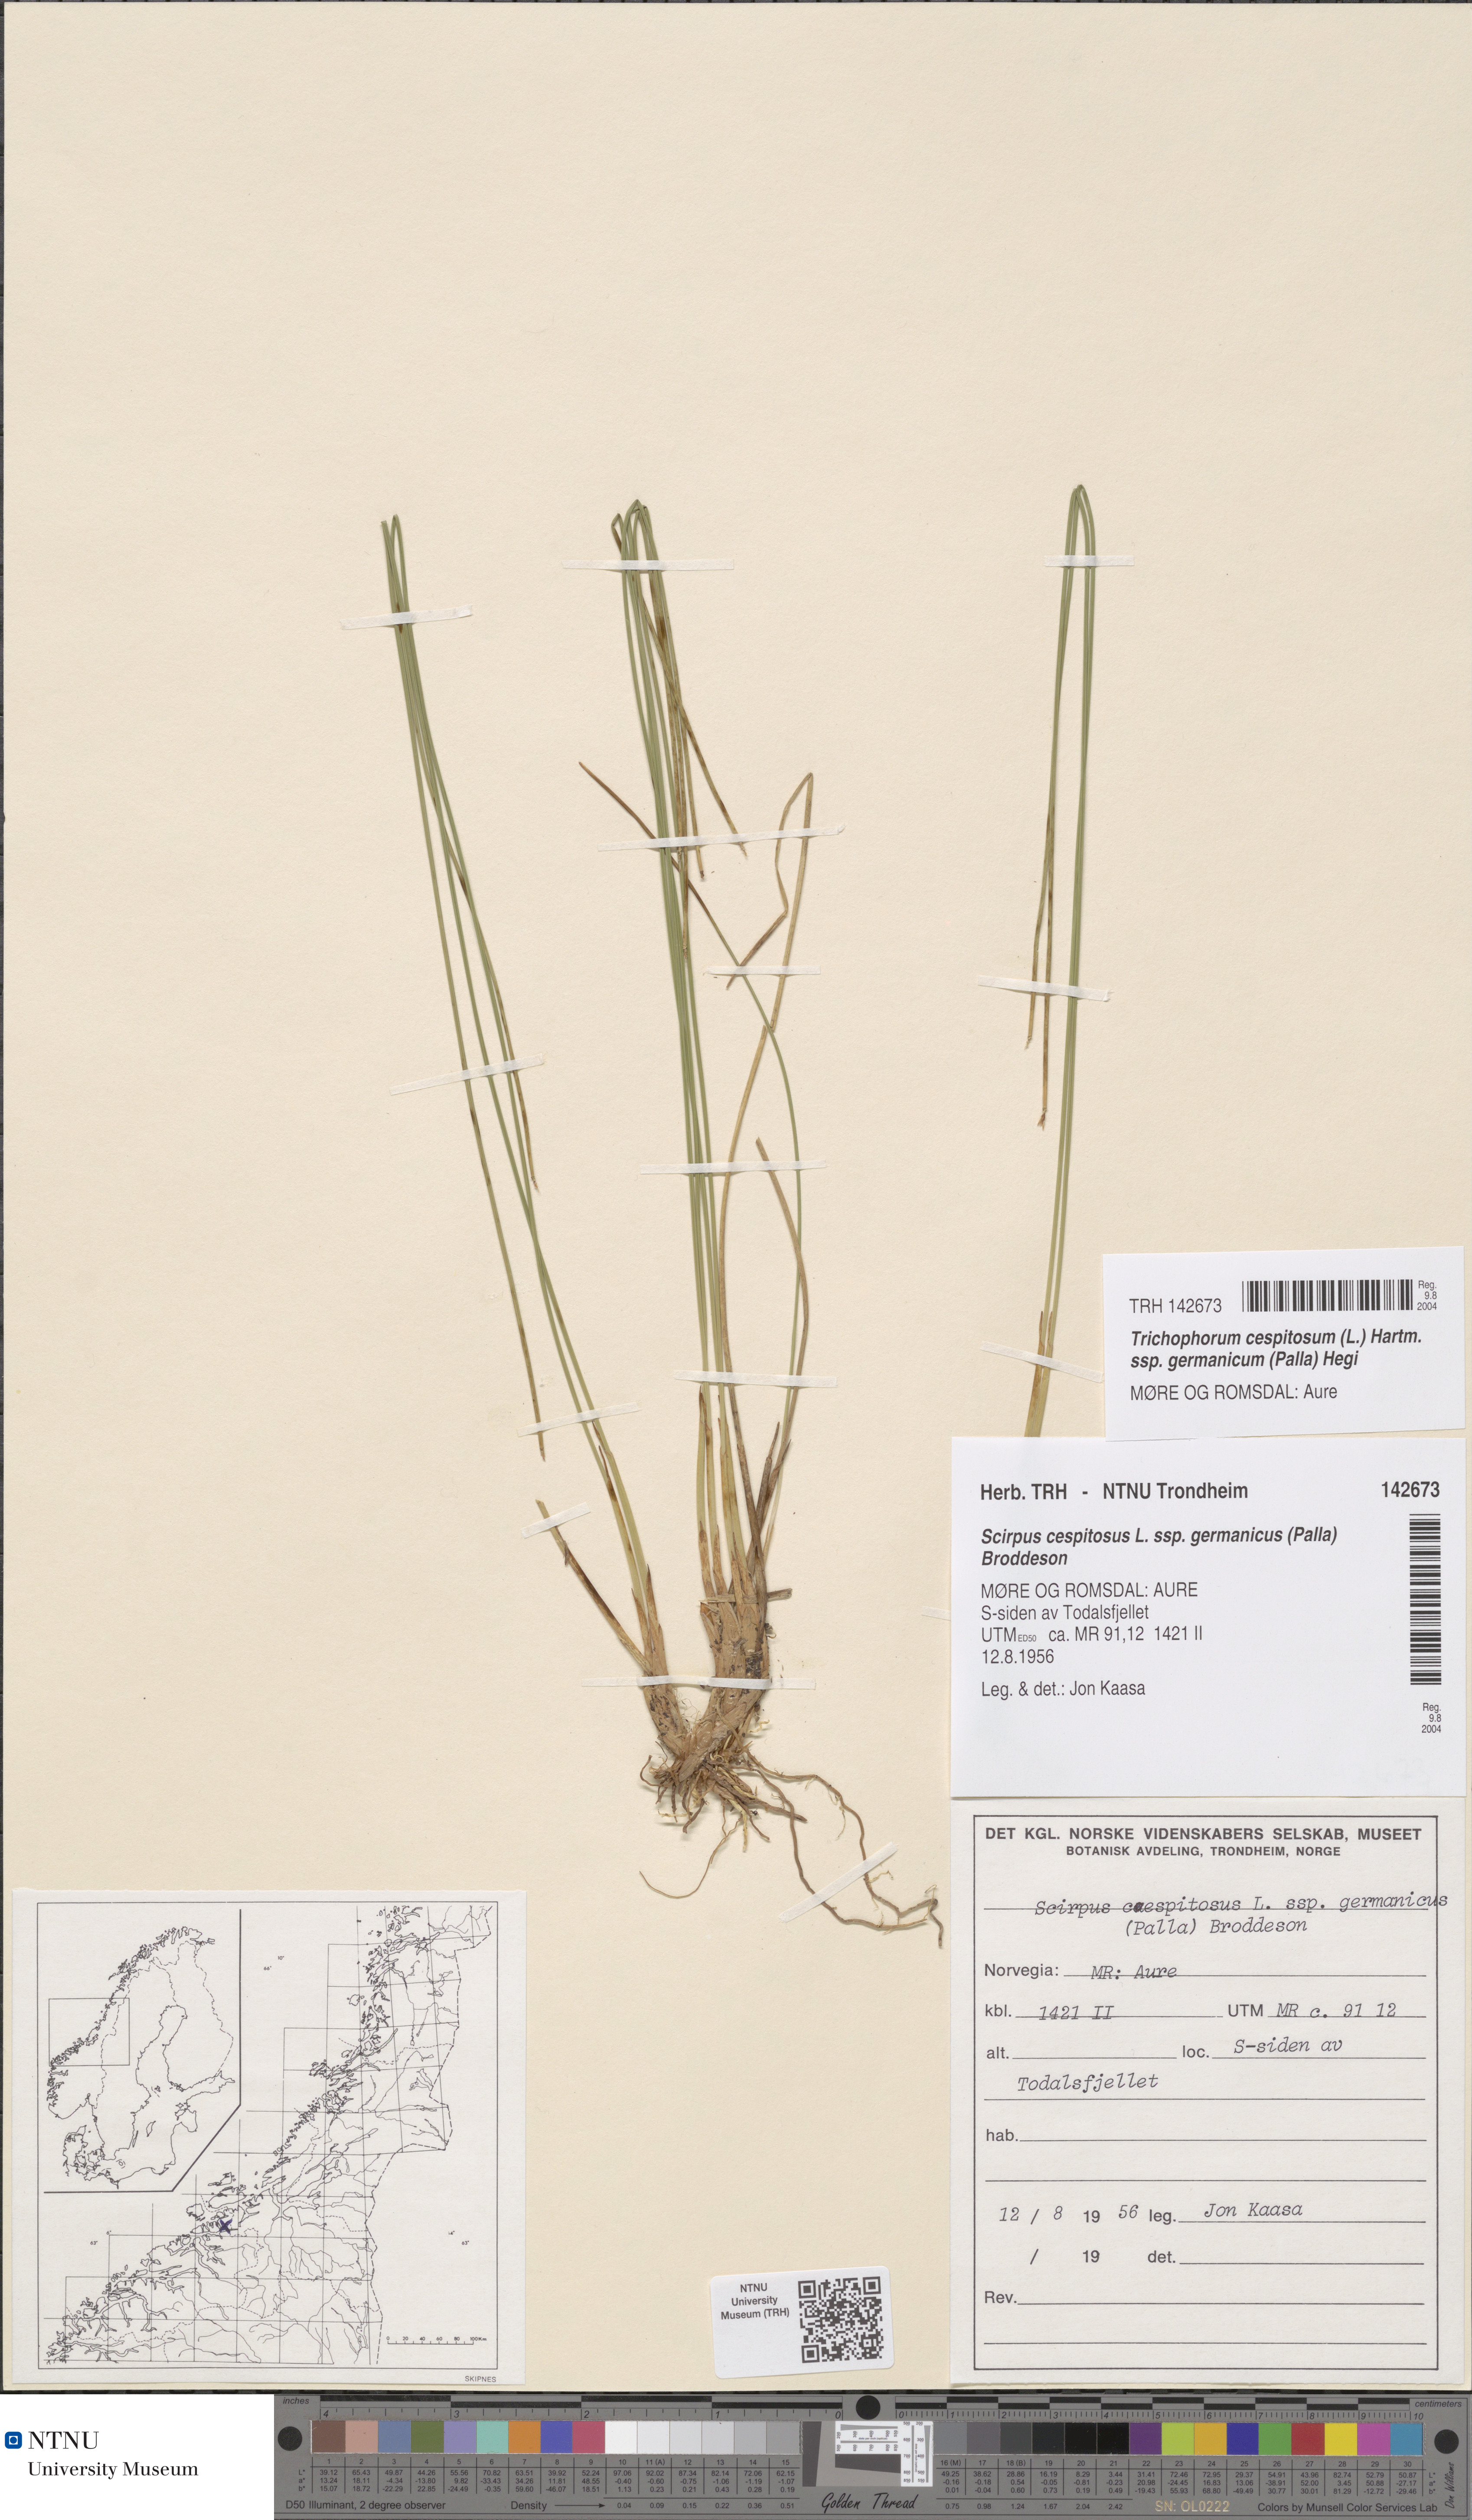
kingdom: Plantae
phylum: Tracheophyta
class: Liliopsida
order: Poales
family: Cyperaceae
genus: Trichophorum
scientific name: Trichophorum cespitosum
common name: Cespitose bulrush
